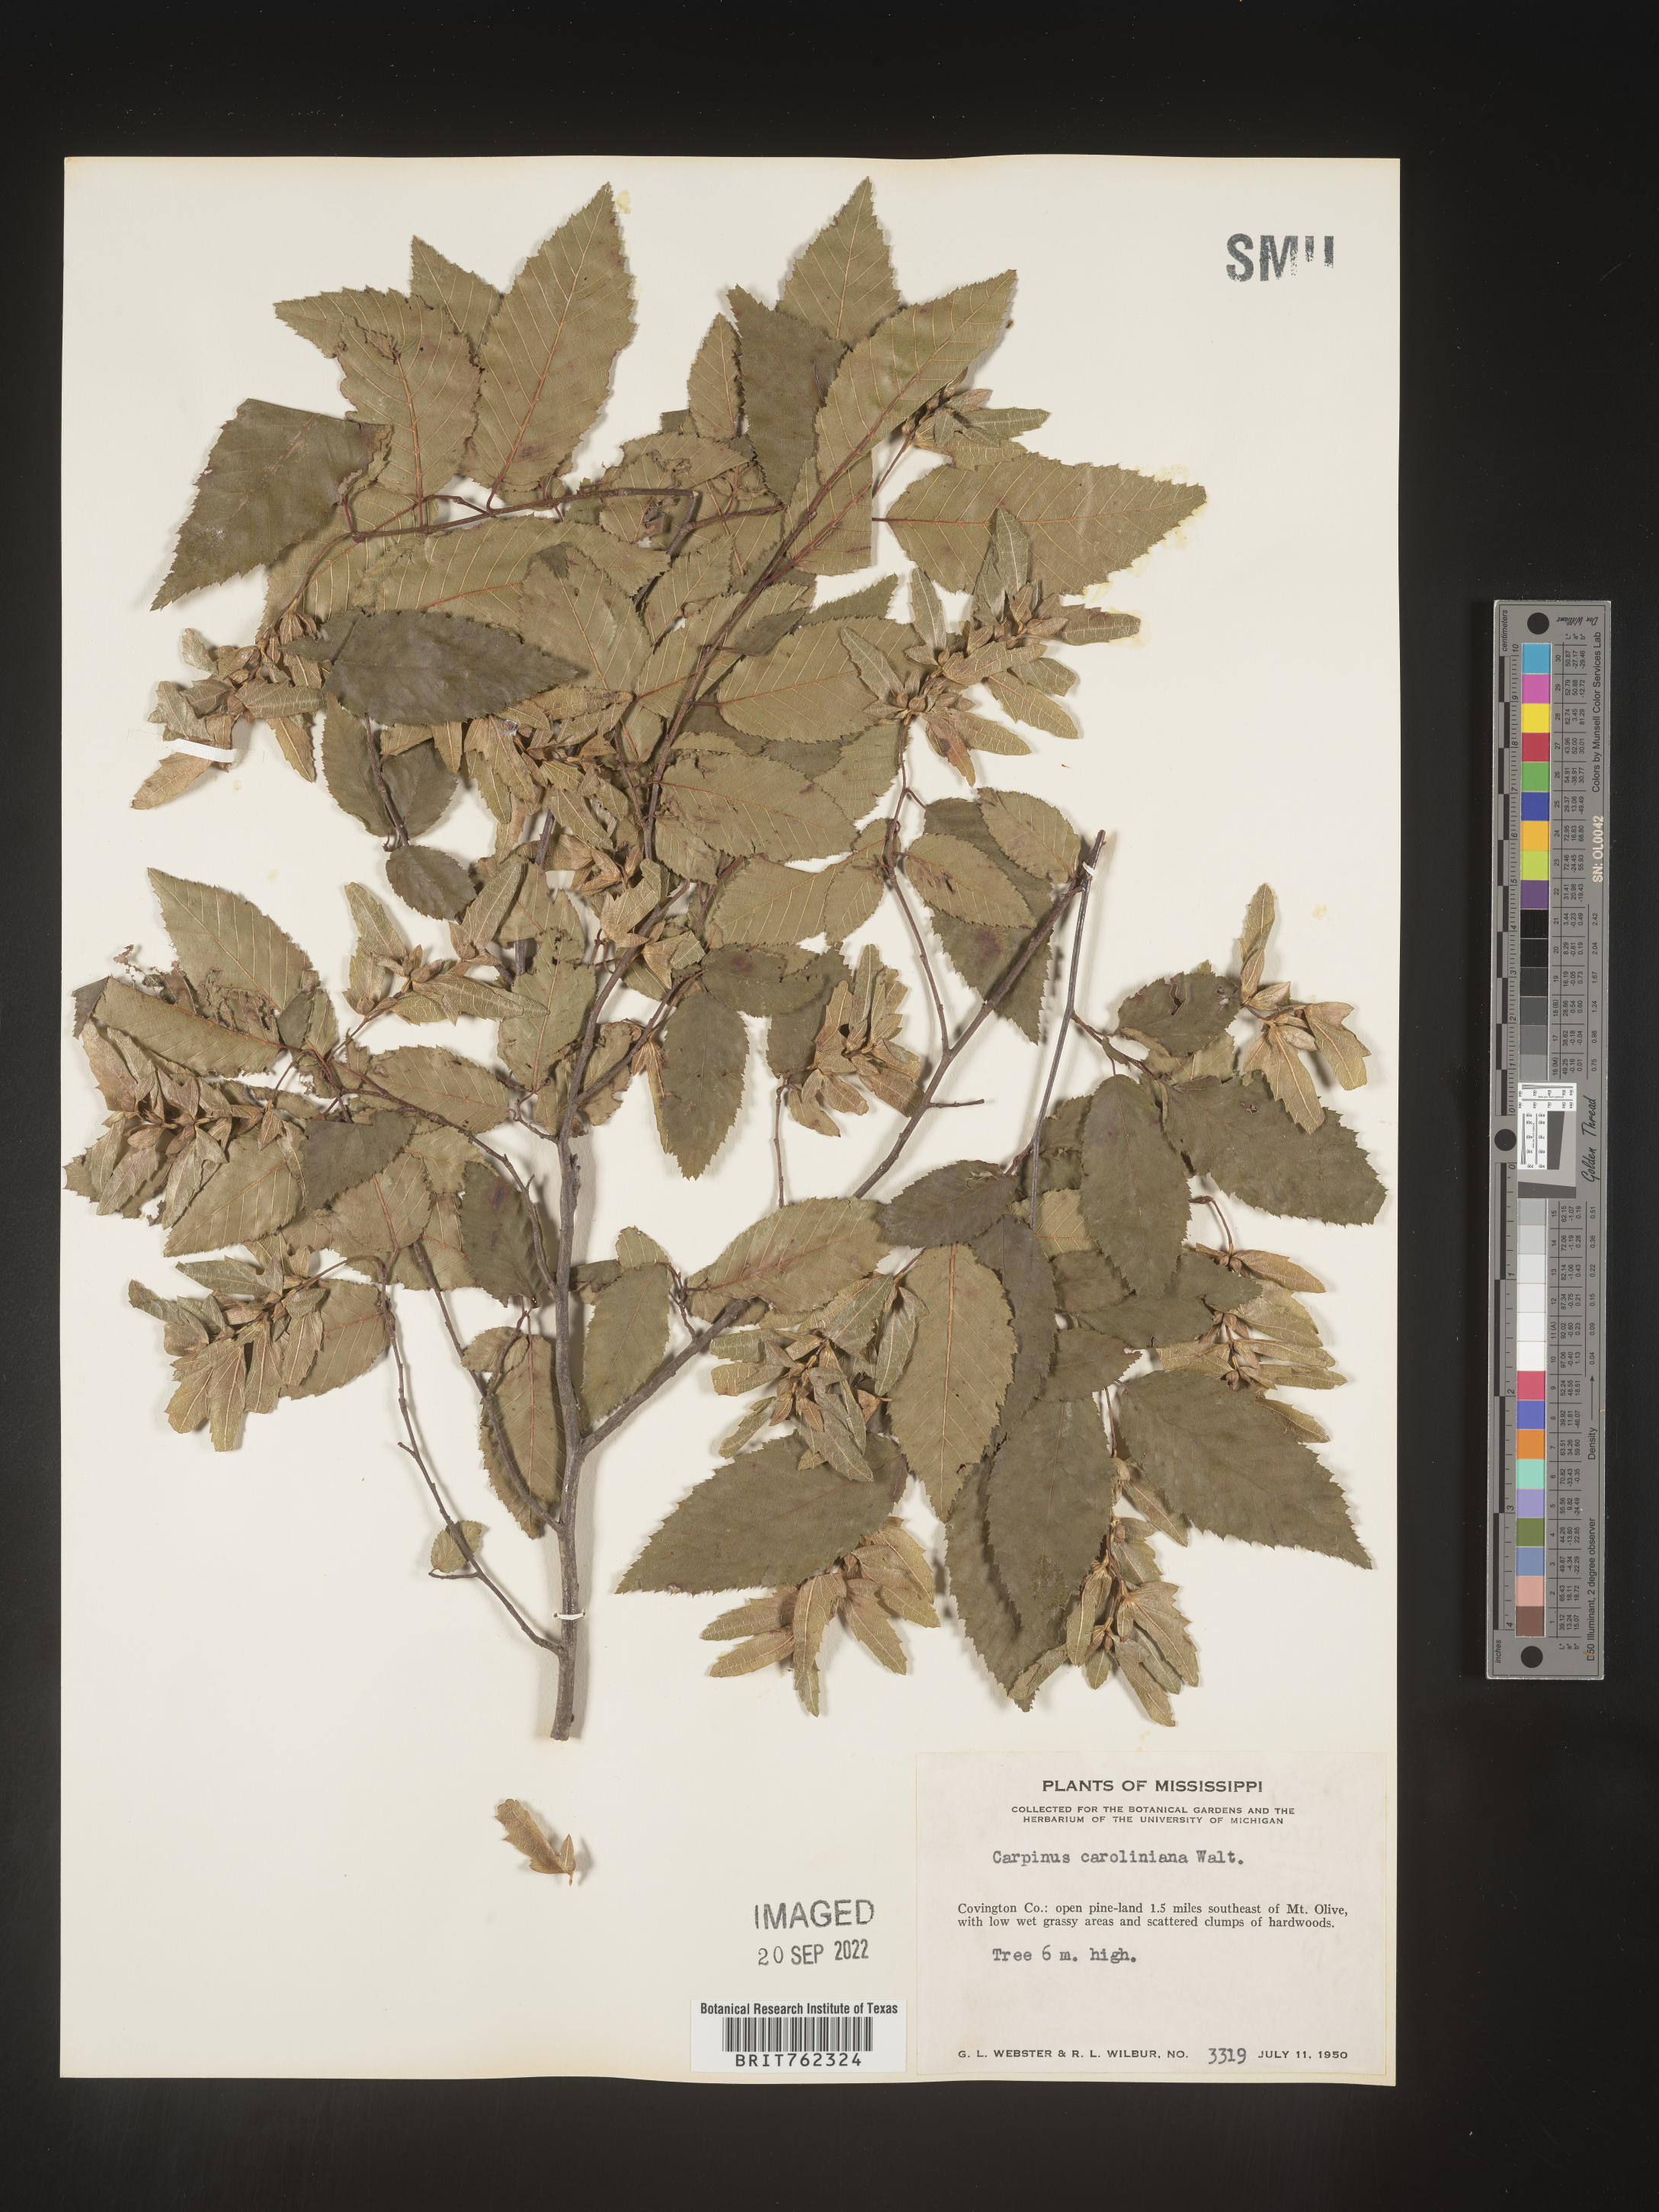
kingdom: Plantae
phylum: Tracheophyta
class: Magnoliopsida
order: Fagales
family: Betulaceae
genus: Carpinus
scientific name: Carpinus caroliniana
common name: American hornbeam
